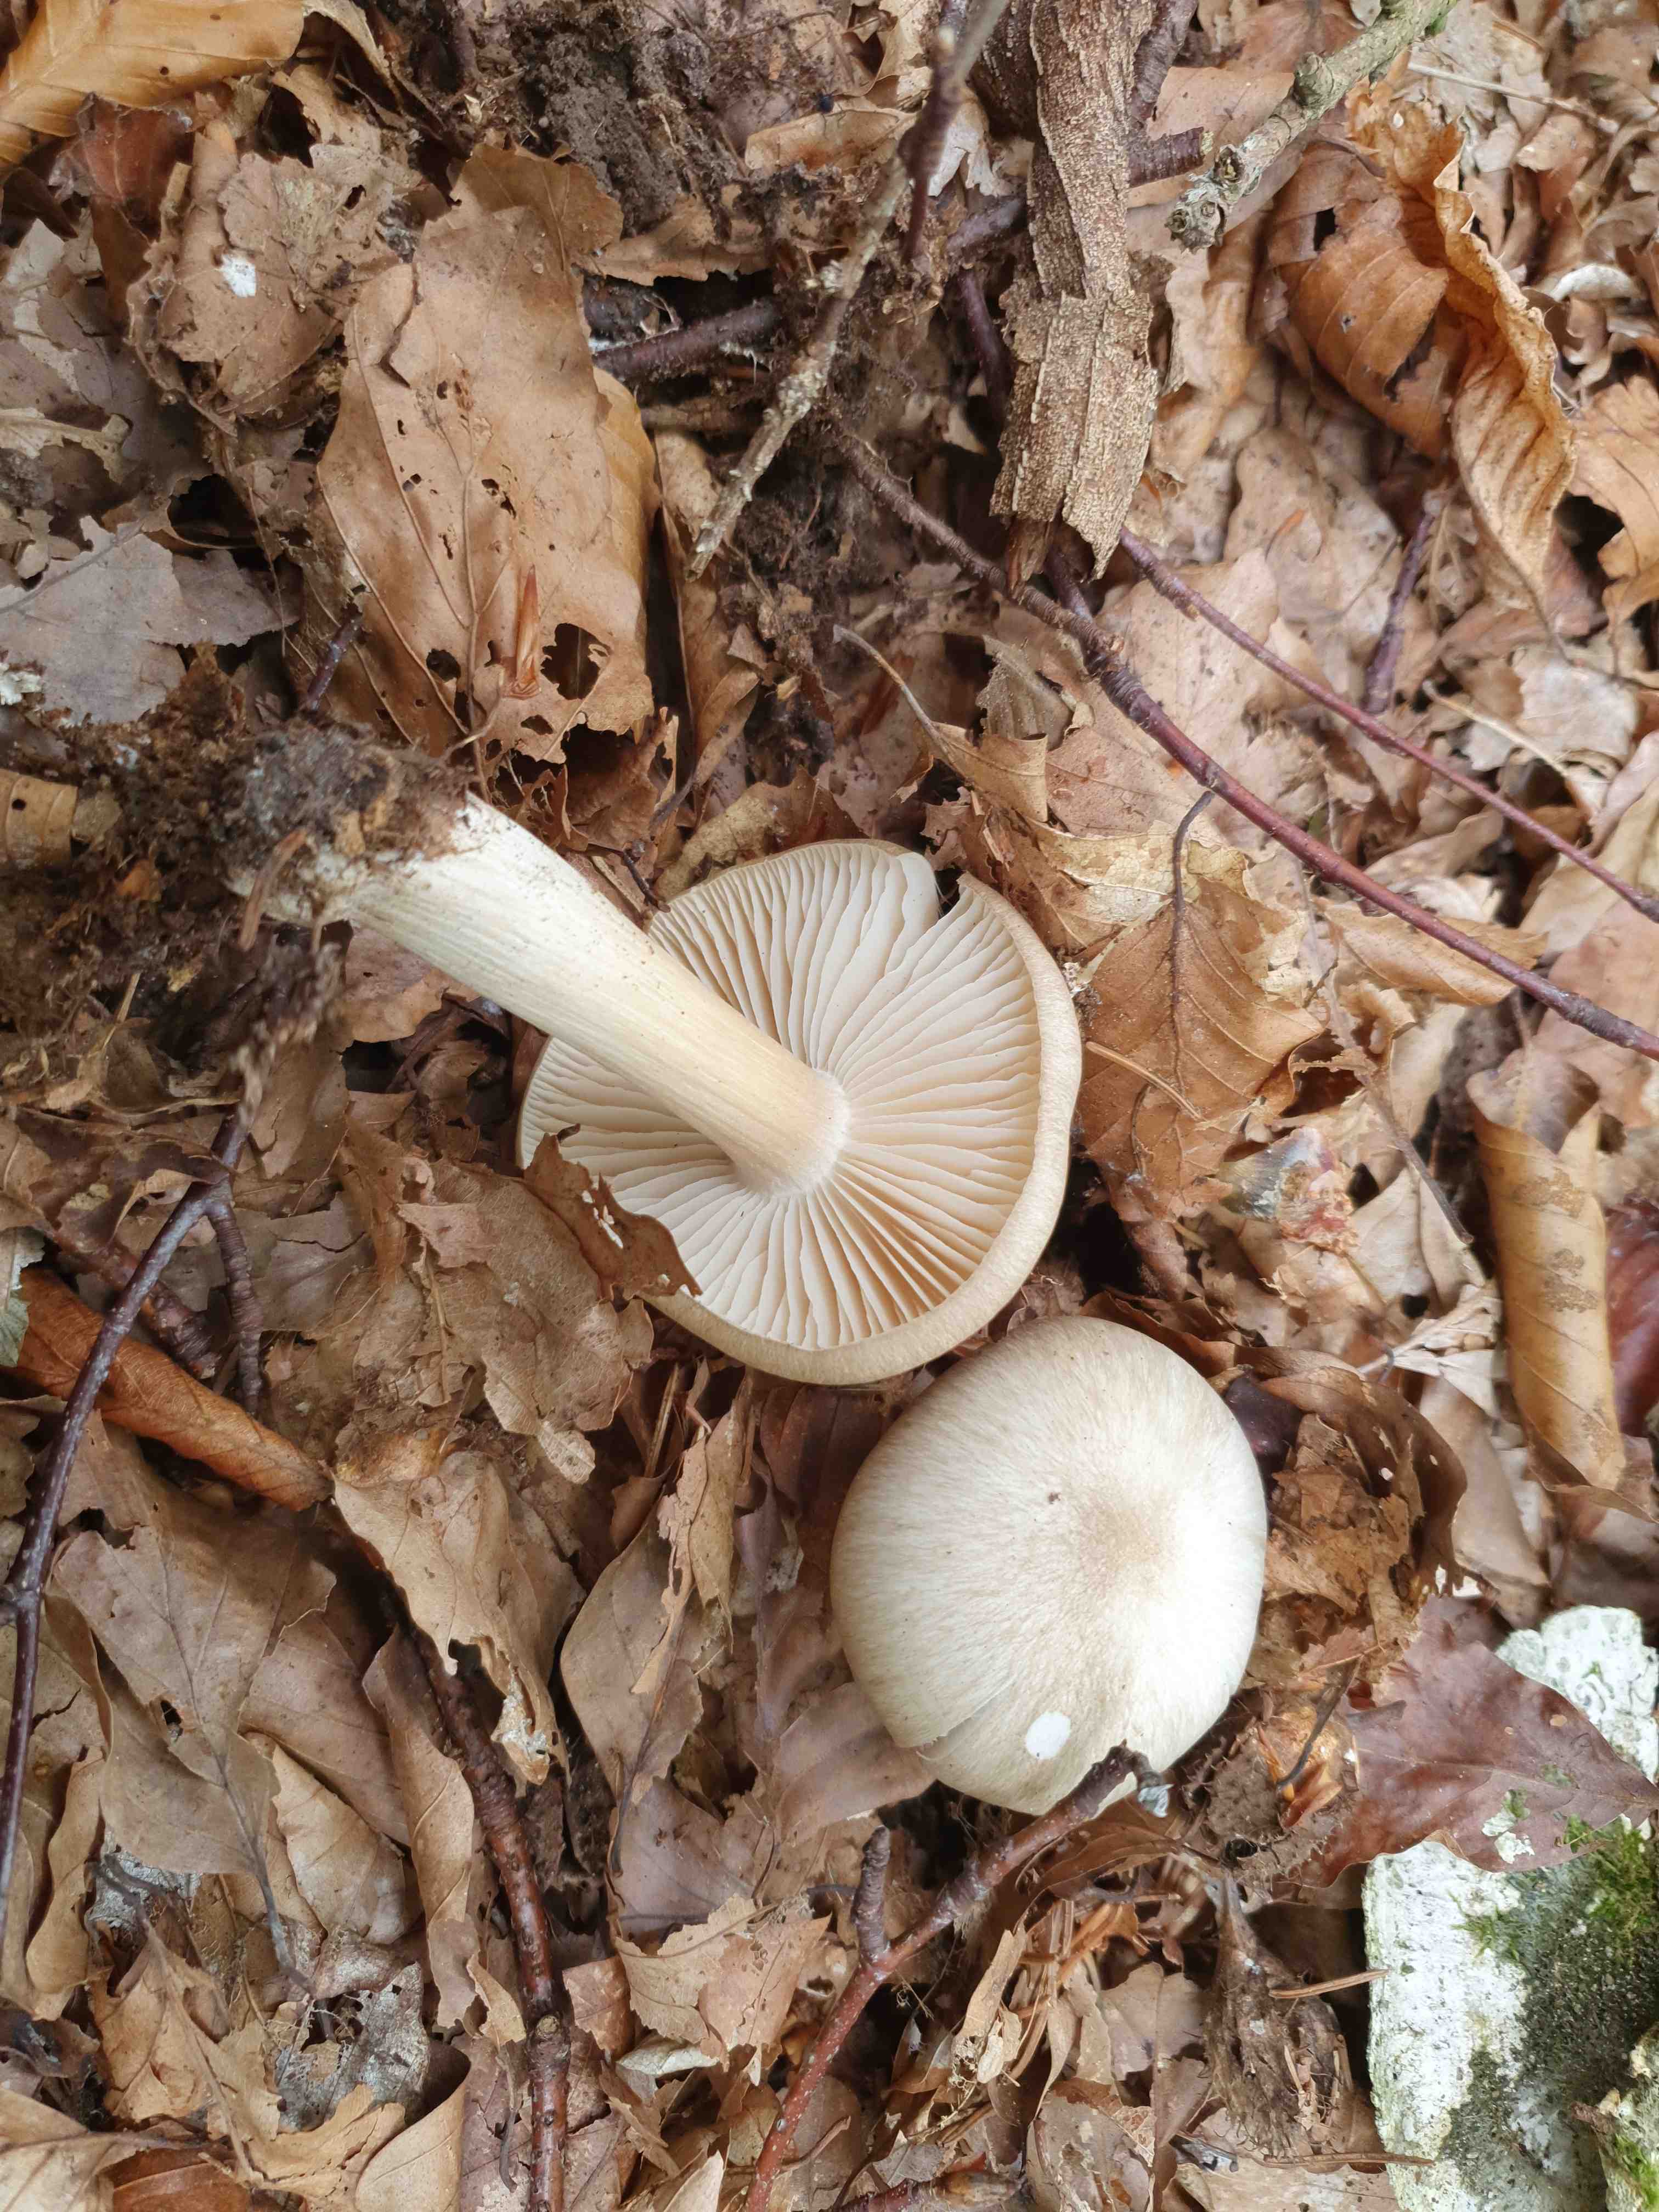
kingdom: Fungi
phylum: Basidiomycota
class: Agaricomycetes
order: Agaricales
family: Tricholomataceae
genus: Megacollybia
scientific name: Megacollybia platyphylla
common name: bredbladet væbnerhat
